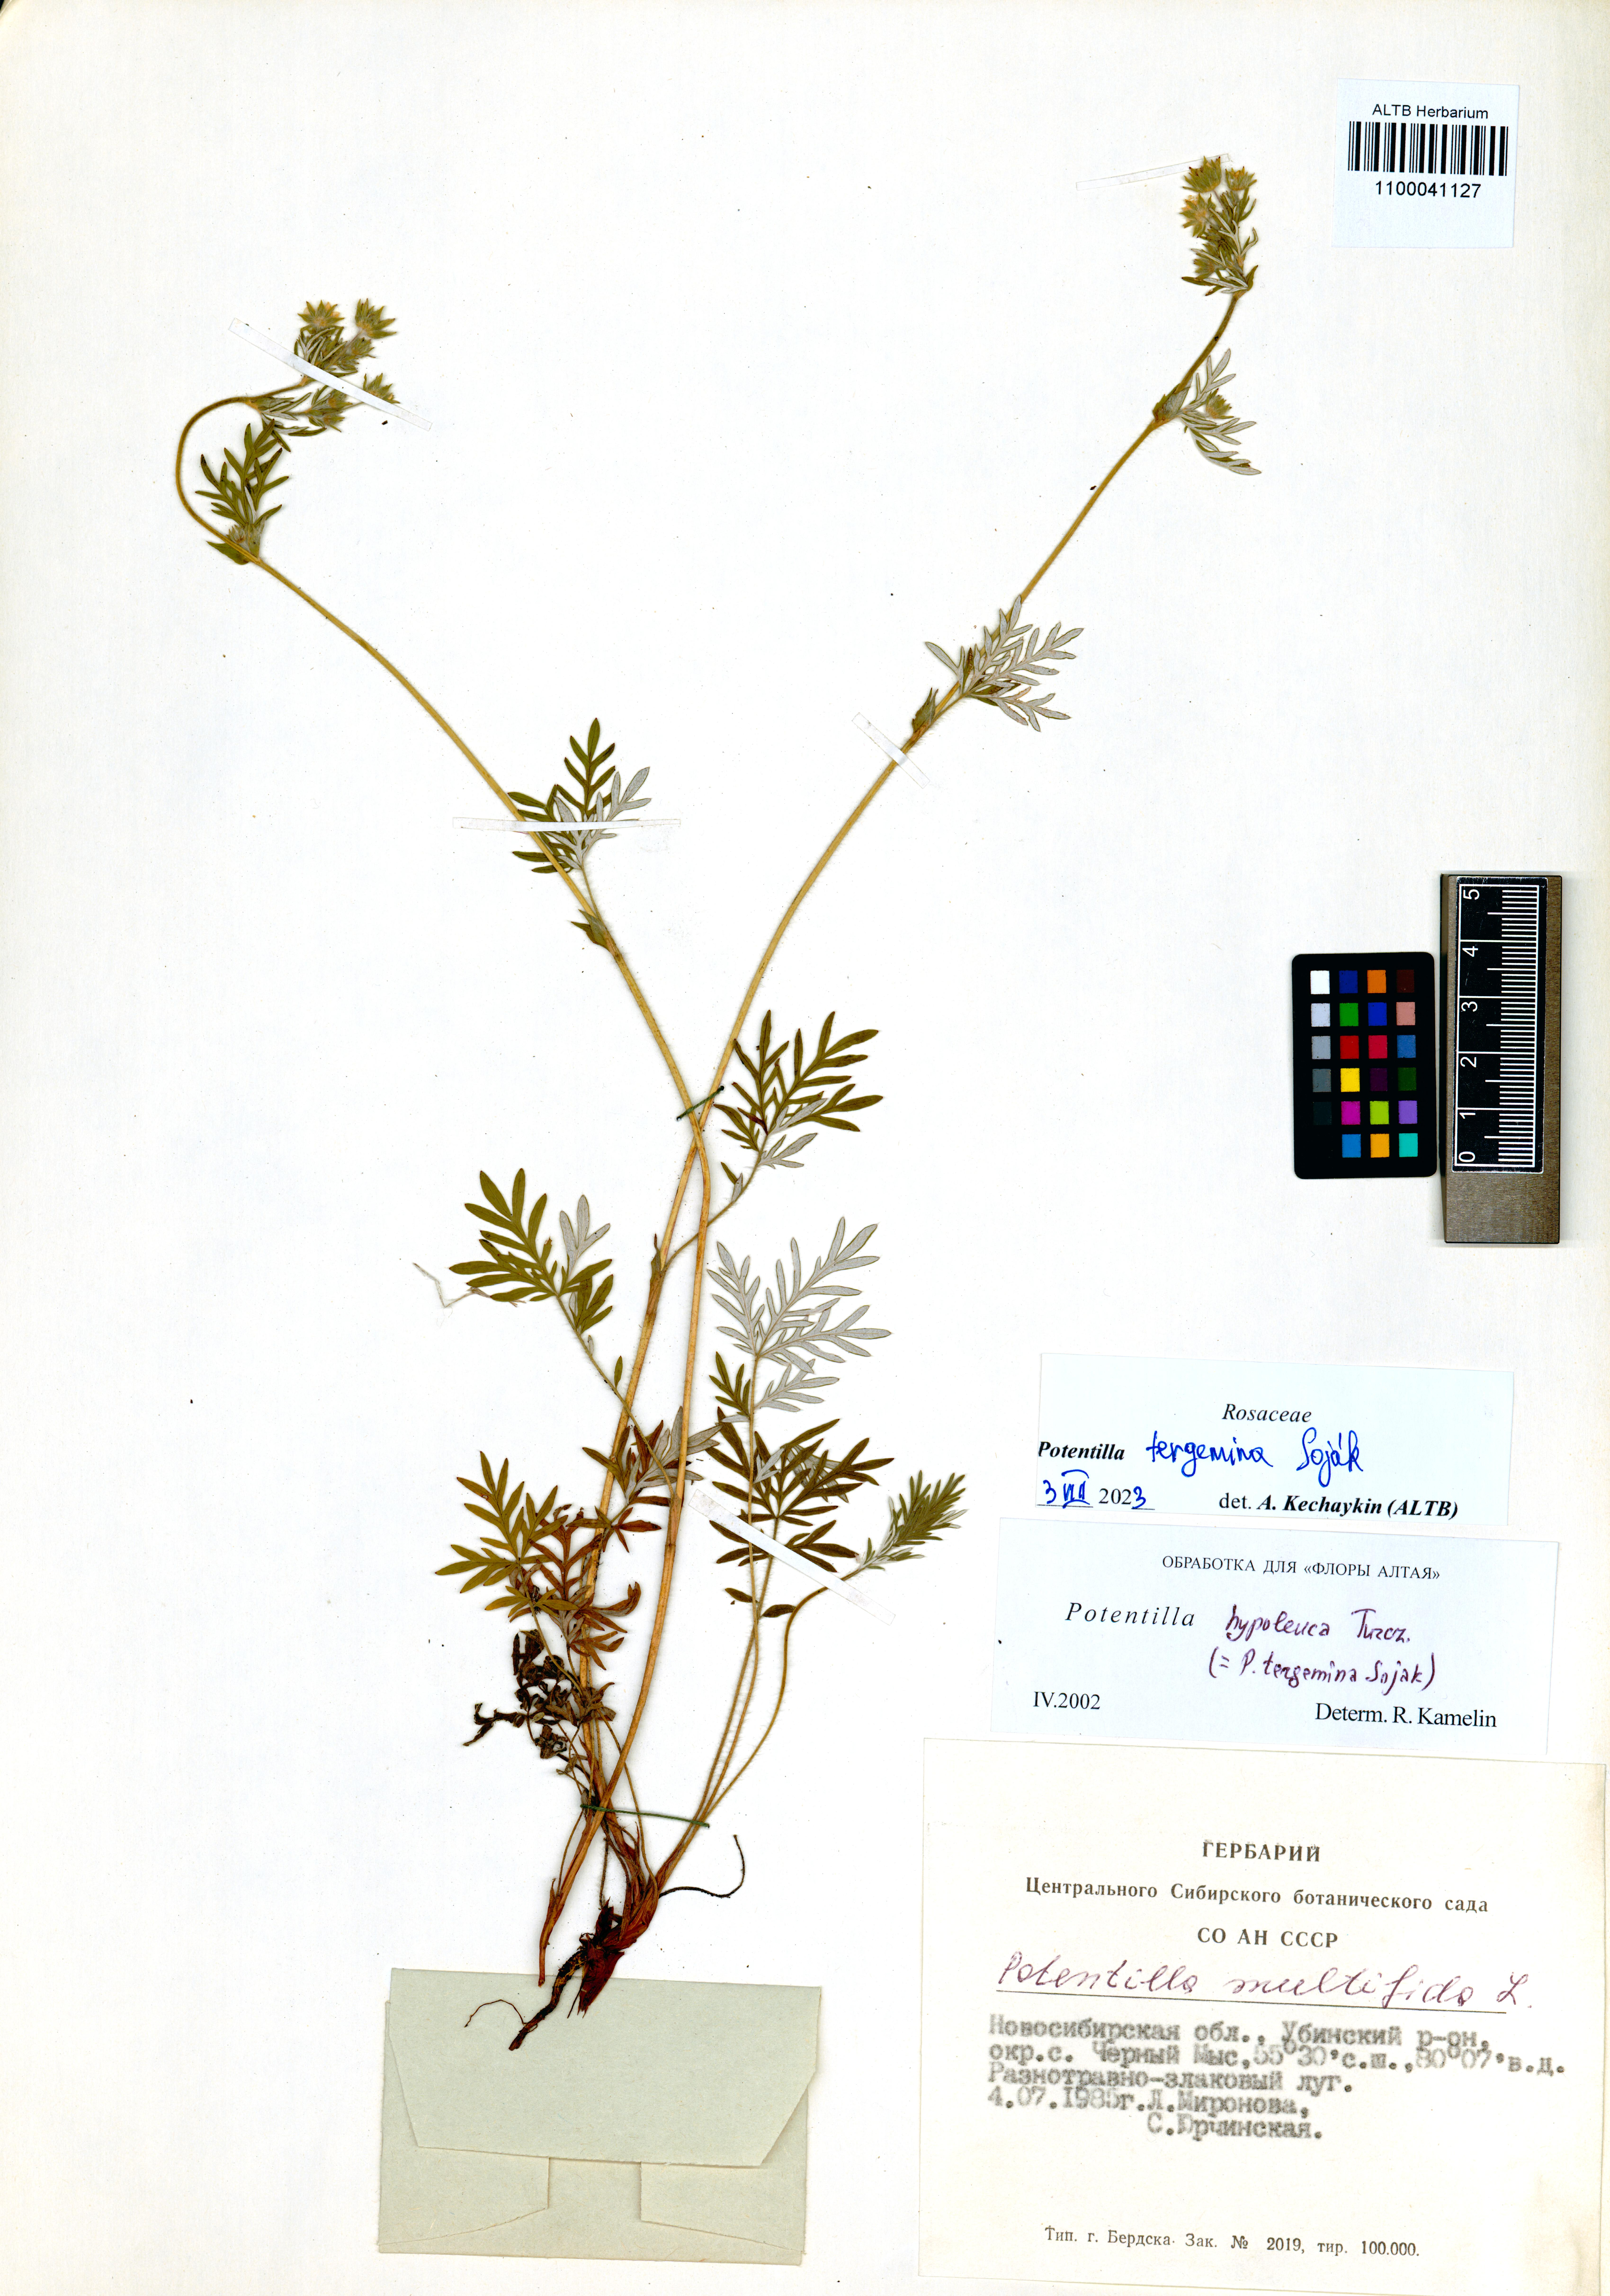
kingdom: Plantae
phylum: Tracheophyta
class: Magnoliopsida
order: Rosales
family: Rosaceae
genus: Potentilla
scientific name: Potentilla tergemina
